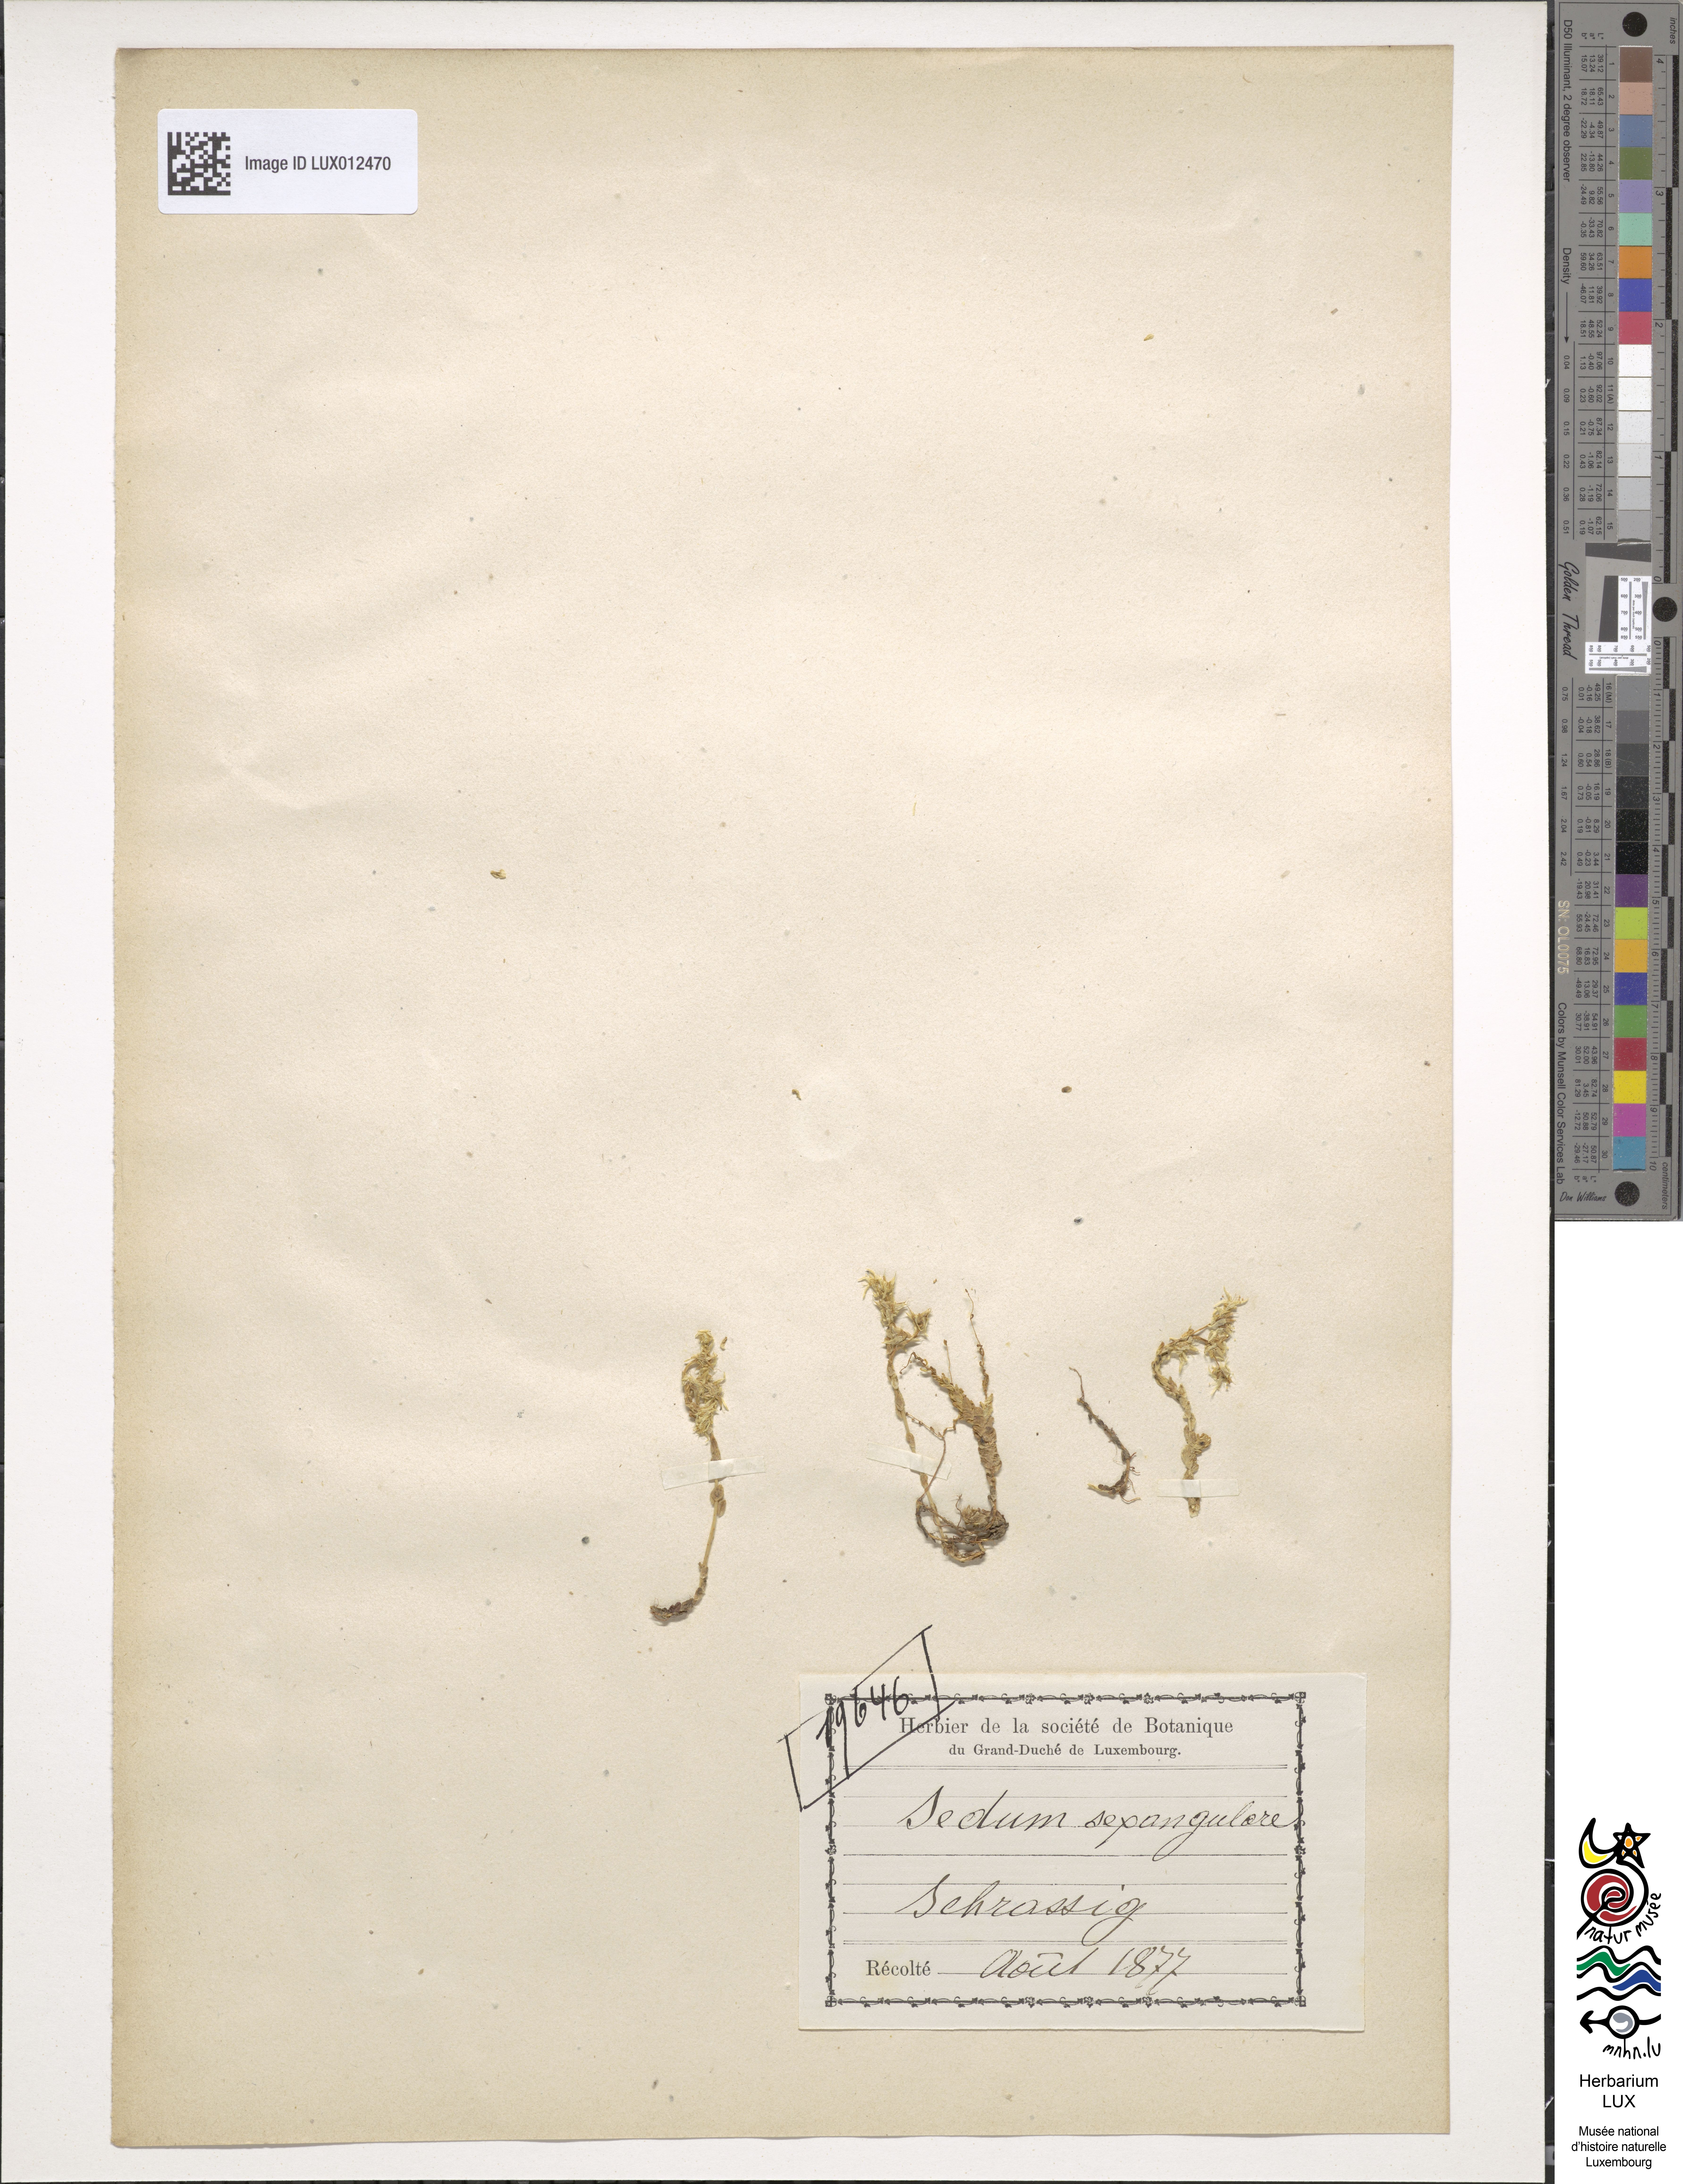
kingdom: Plantae
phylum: Tracheophyta
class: Magnoliopsida
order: Saxifragales
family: Crassulaceae
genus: Sedum
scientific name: Sedum sexangulare
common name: Tasteless stonecrop
